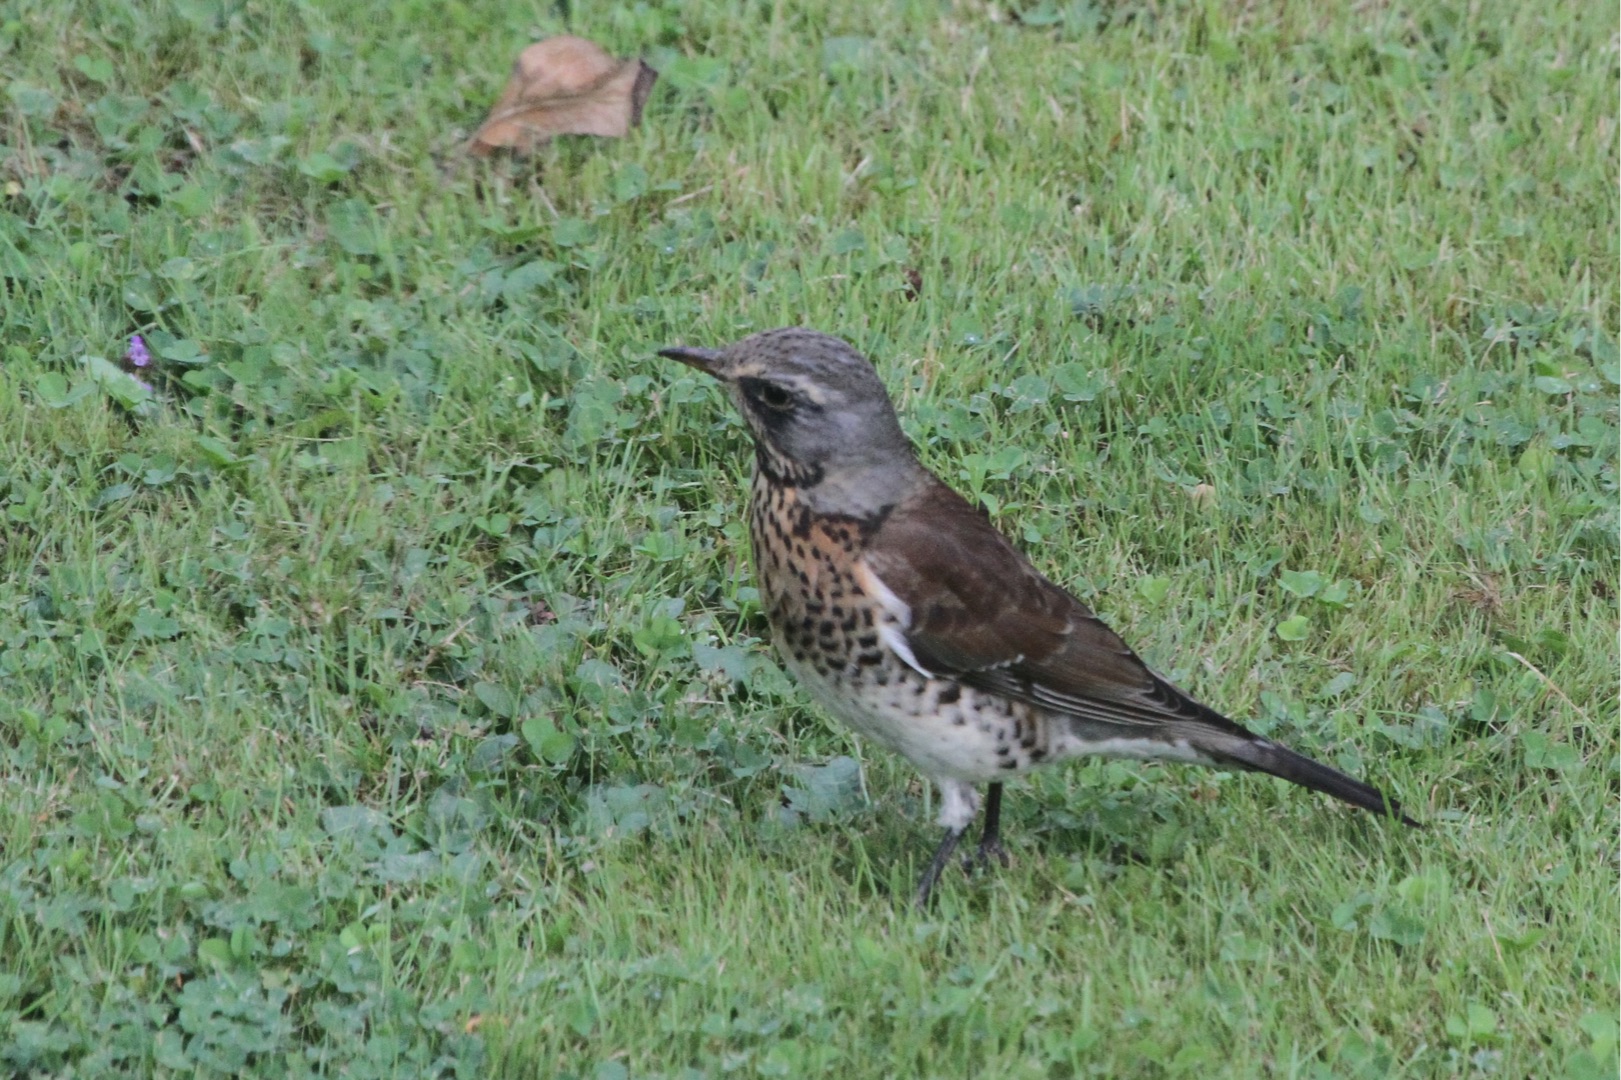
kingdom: Animalia
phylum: Chordata
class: Aves
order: Passeriformes
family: Turdidae
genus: Turdus
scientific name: Turdus pilaris
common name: Sjagger
